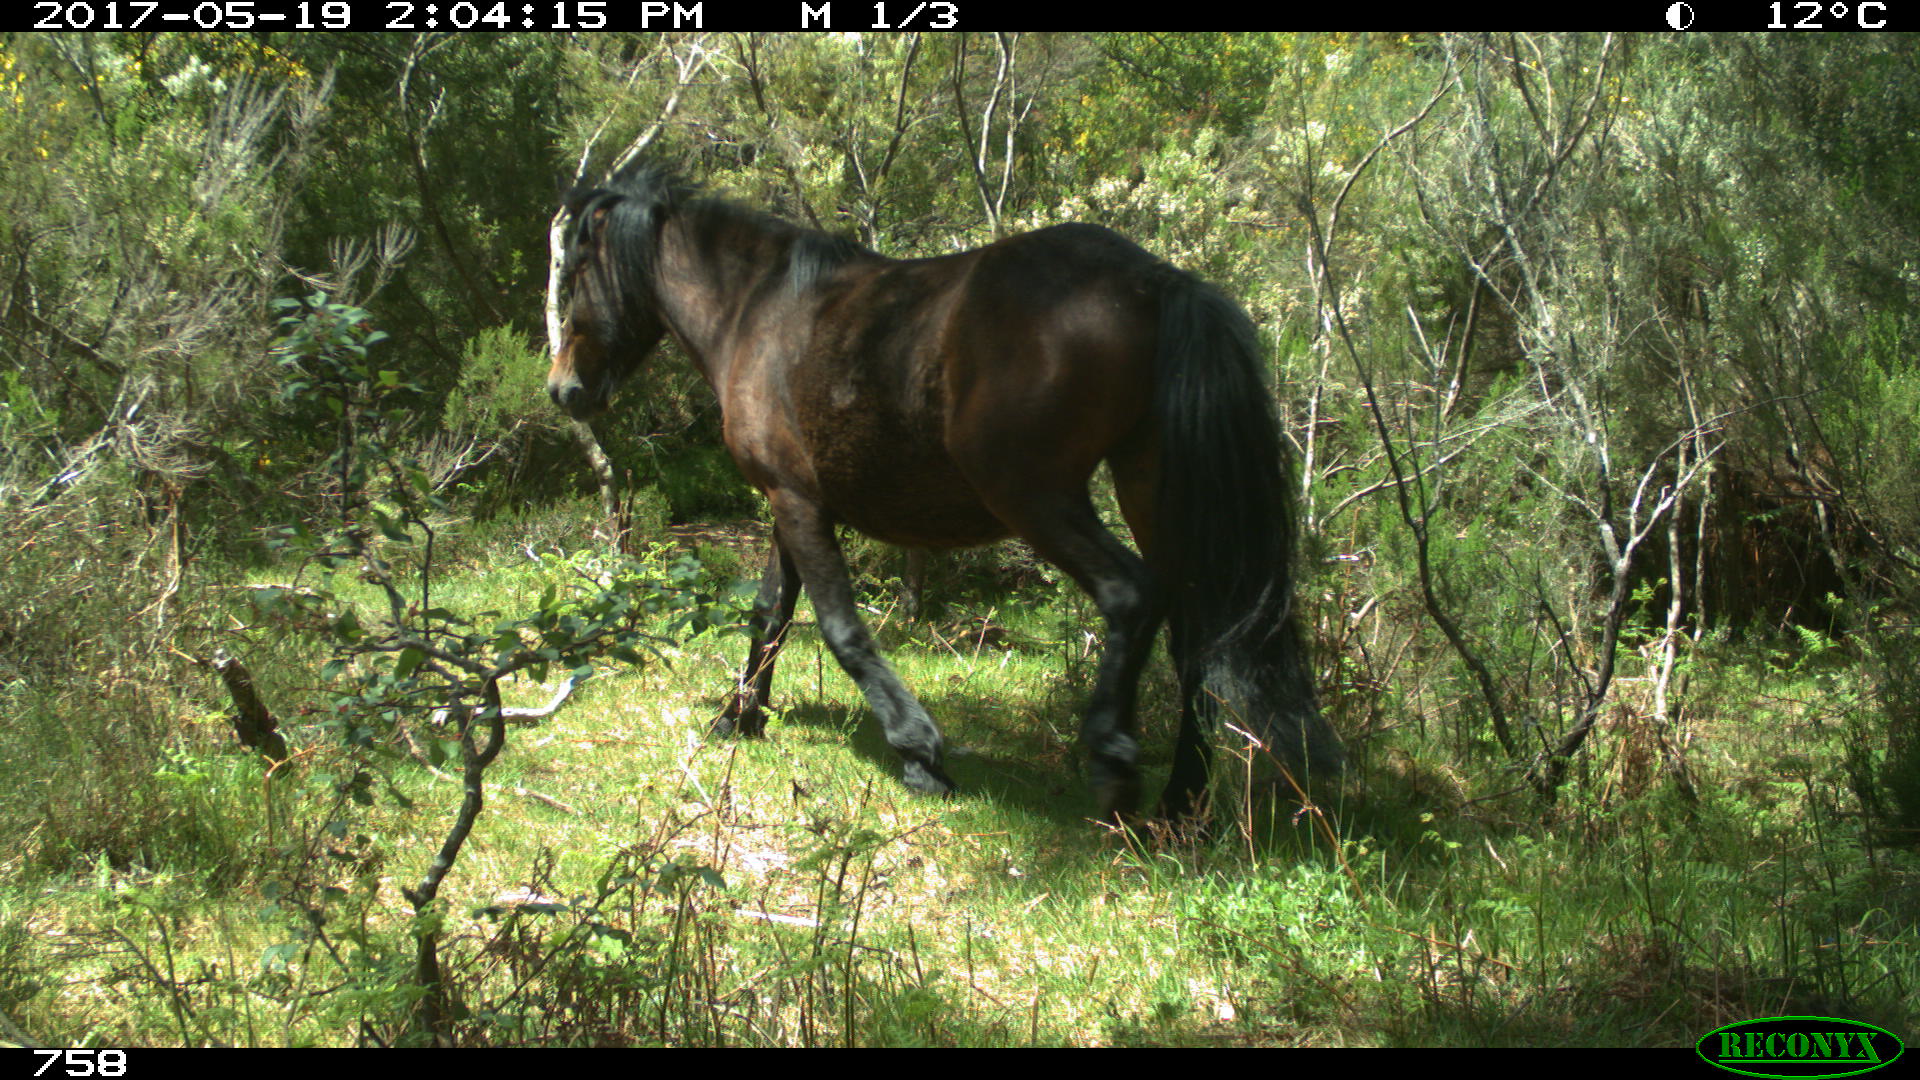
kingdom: Animalia
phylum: Chordata
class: Mammalia
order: Perissodactyla
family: Equidae
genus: Equus
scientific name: Equus caballus
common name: Horse
